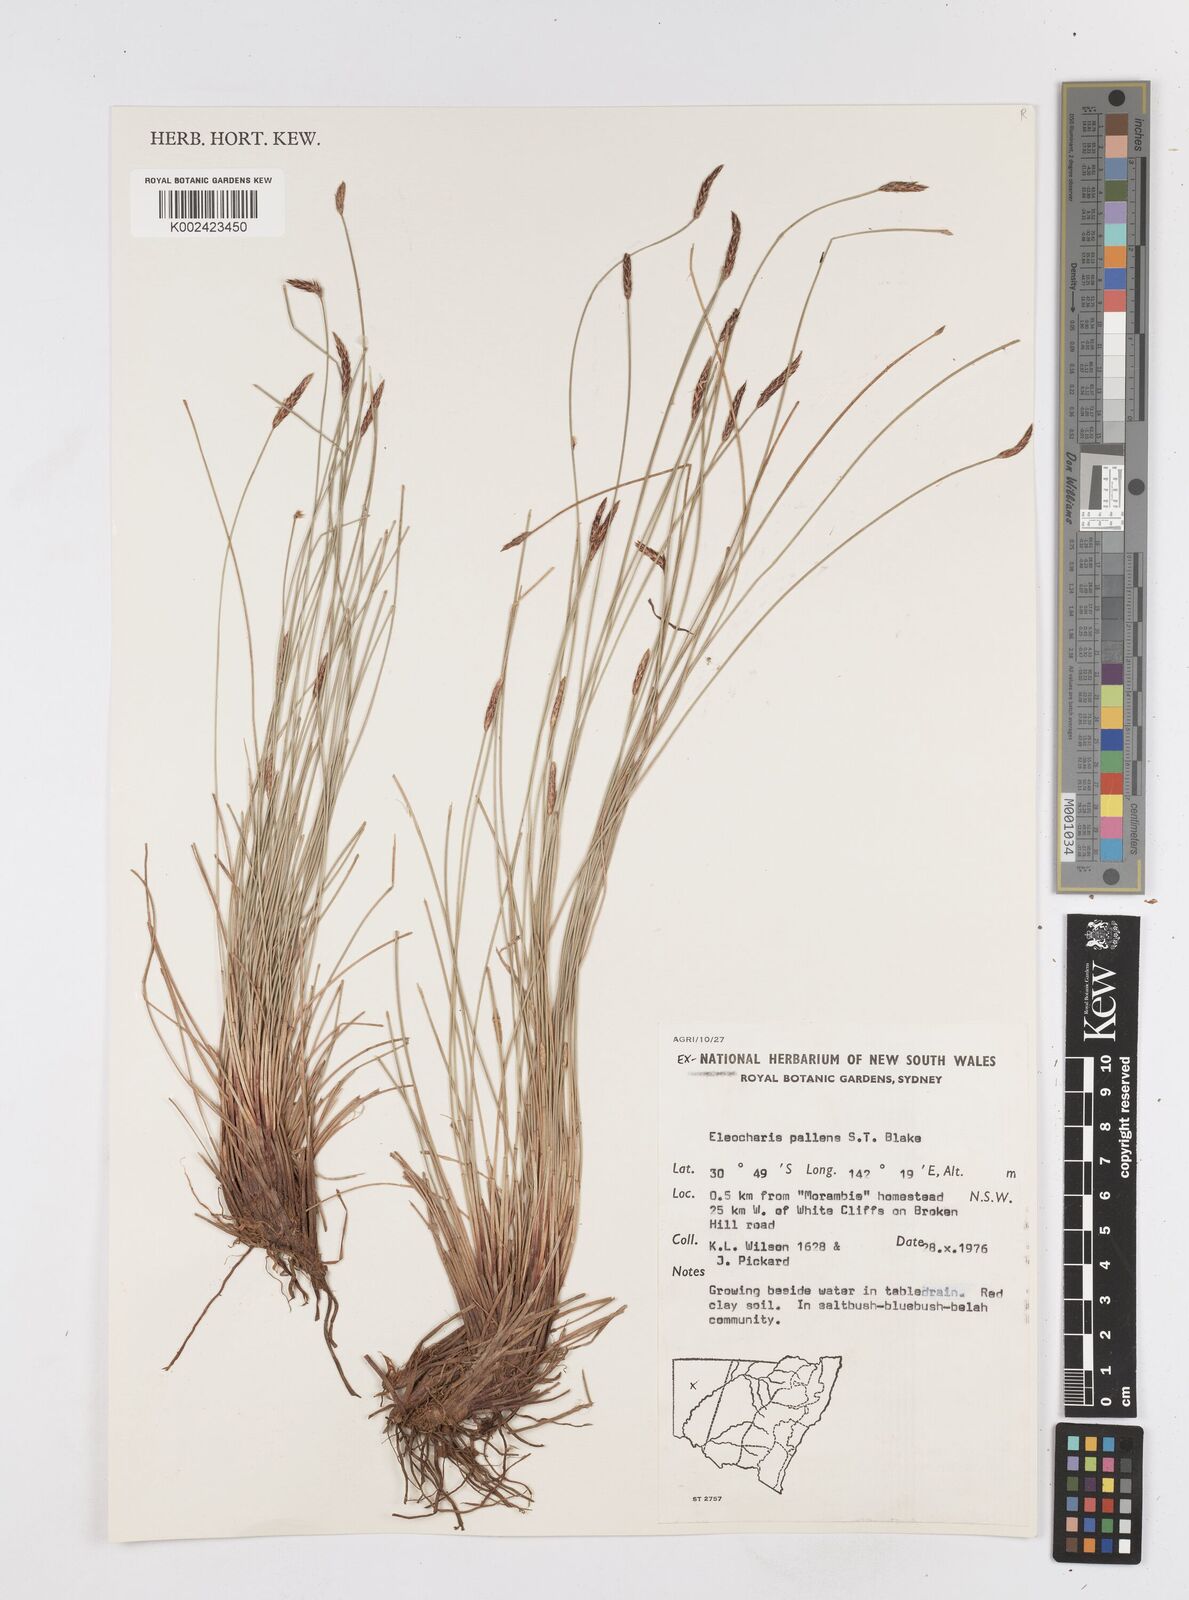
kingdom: Plantae
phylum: Tracheophyta
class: Liliopsida
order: Poales
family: Cyperaceae
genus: Eleocharis
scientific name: Eleocharis acuta
